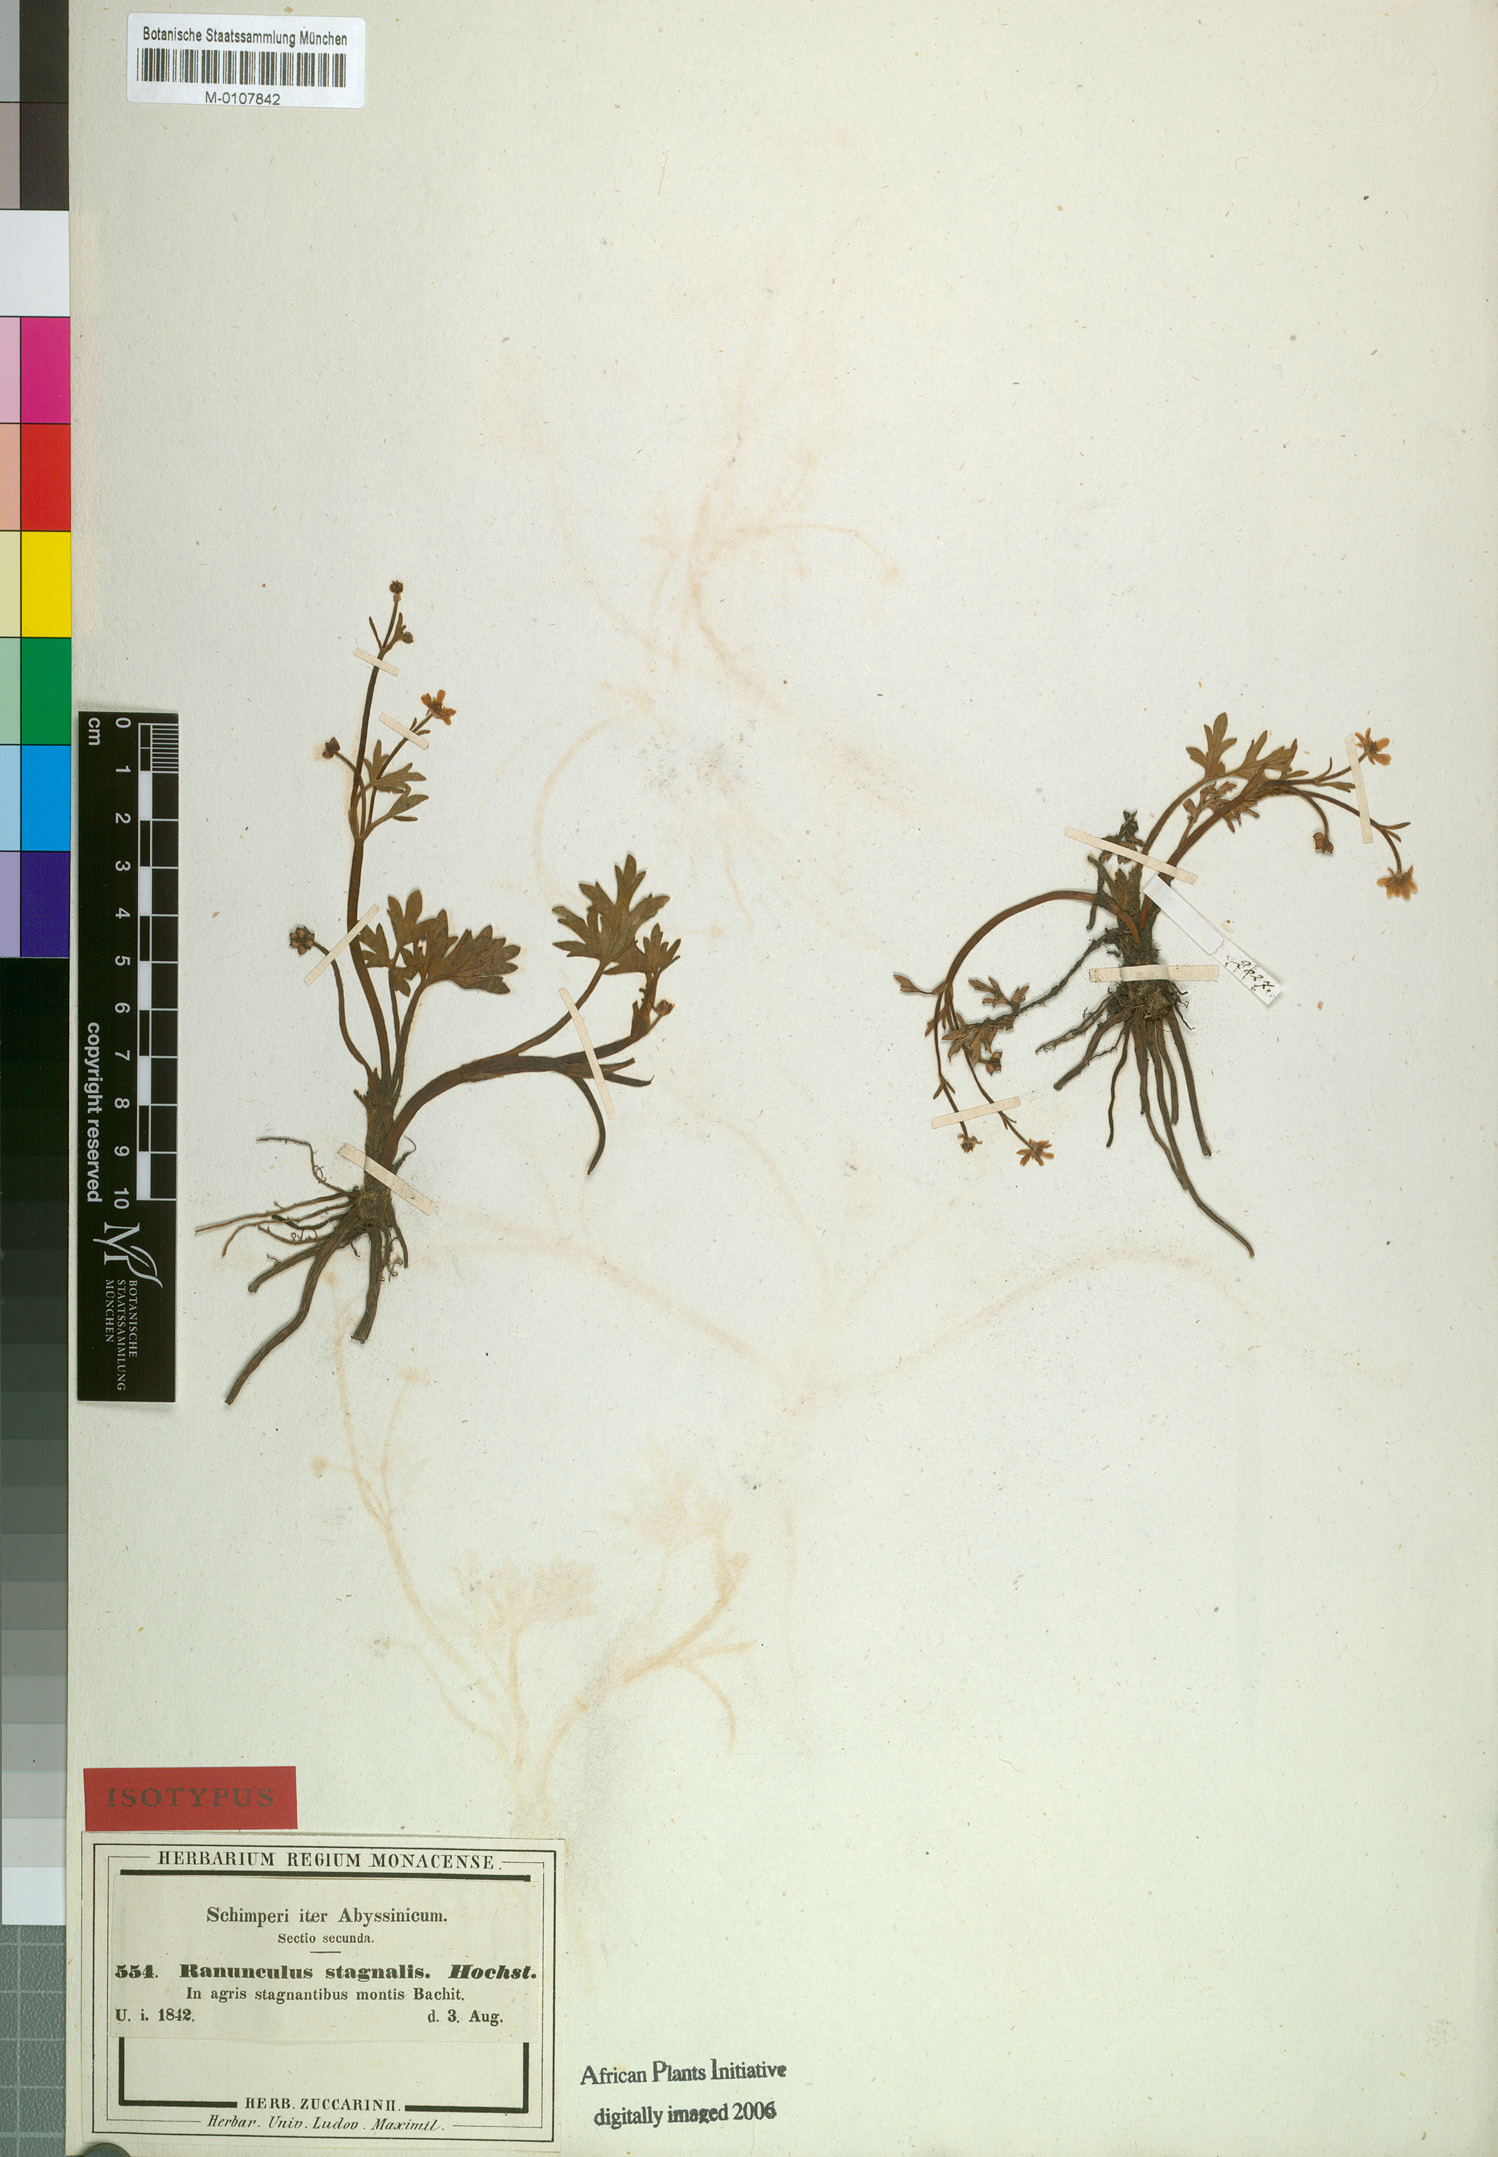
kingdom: Plantae
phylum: Tracheophyta
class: Magnoliopsida
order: Ranunculales
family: Ranunculaceae
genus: Ranunculus
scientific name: Ranunculus stagnalis
